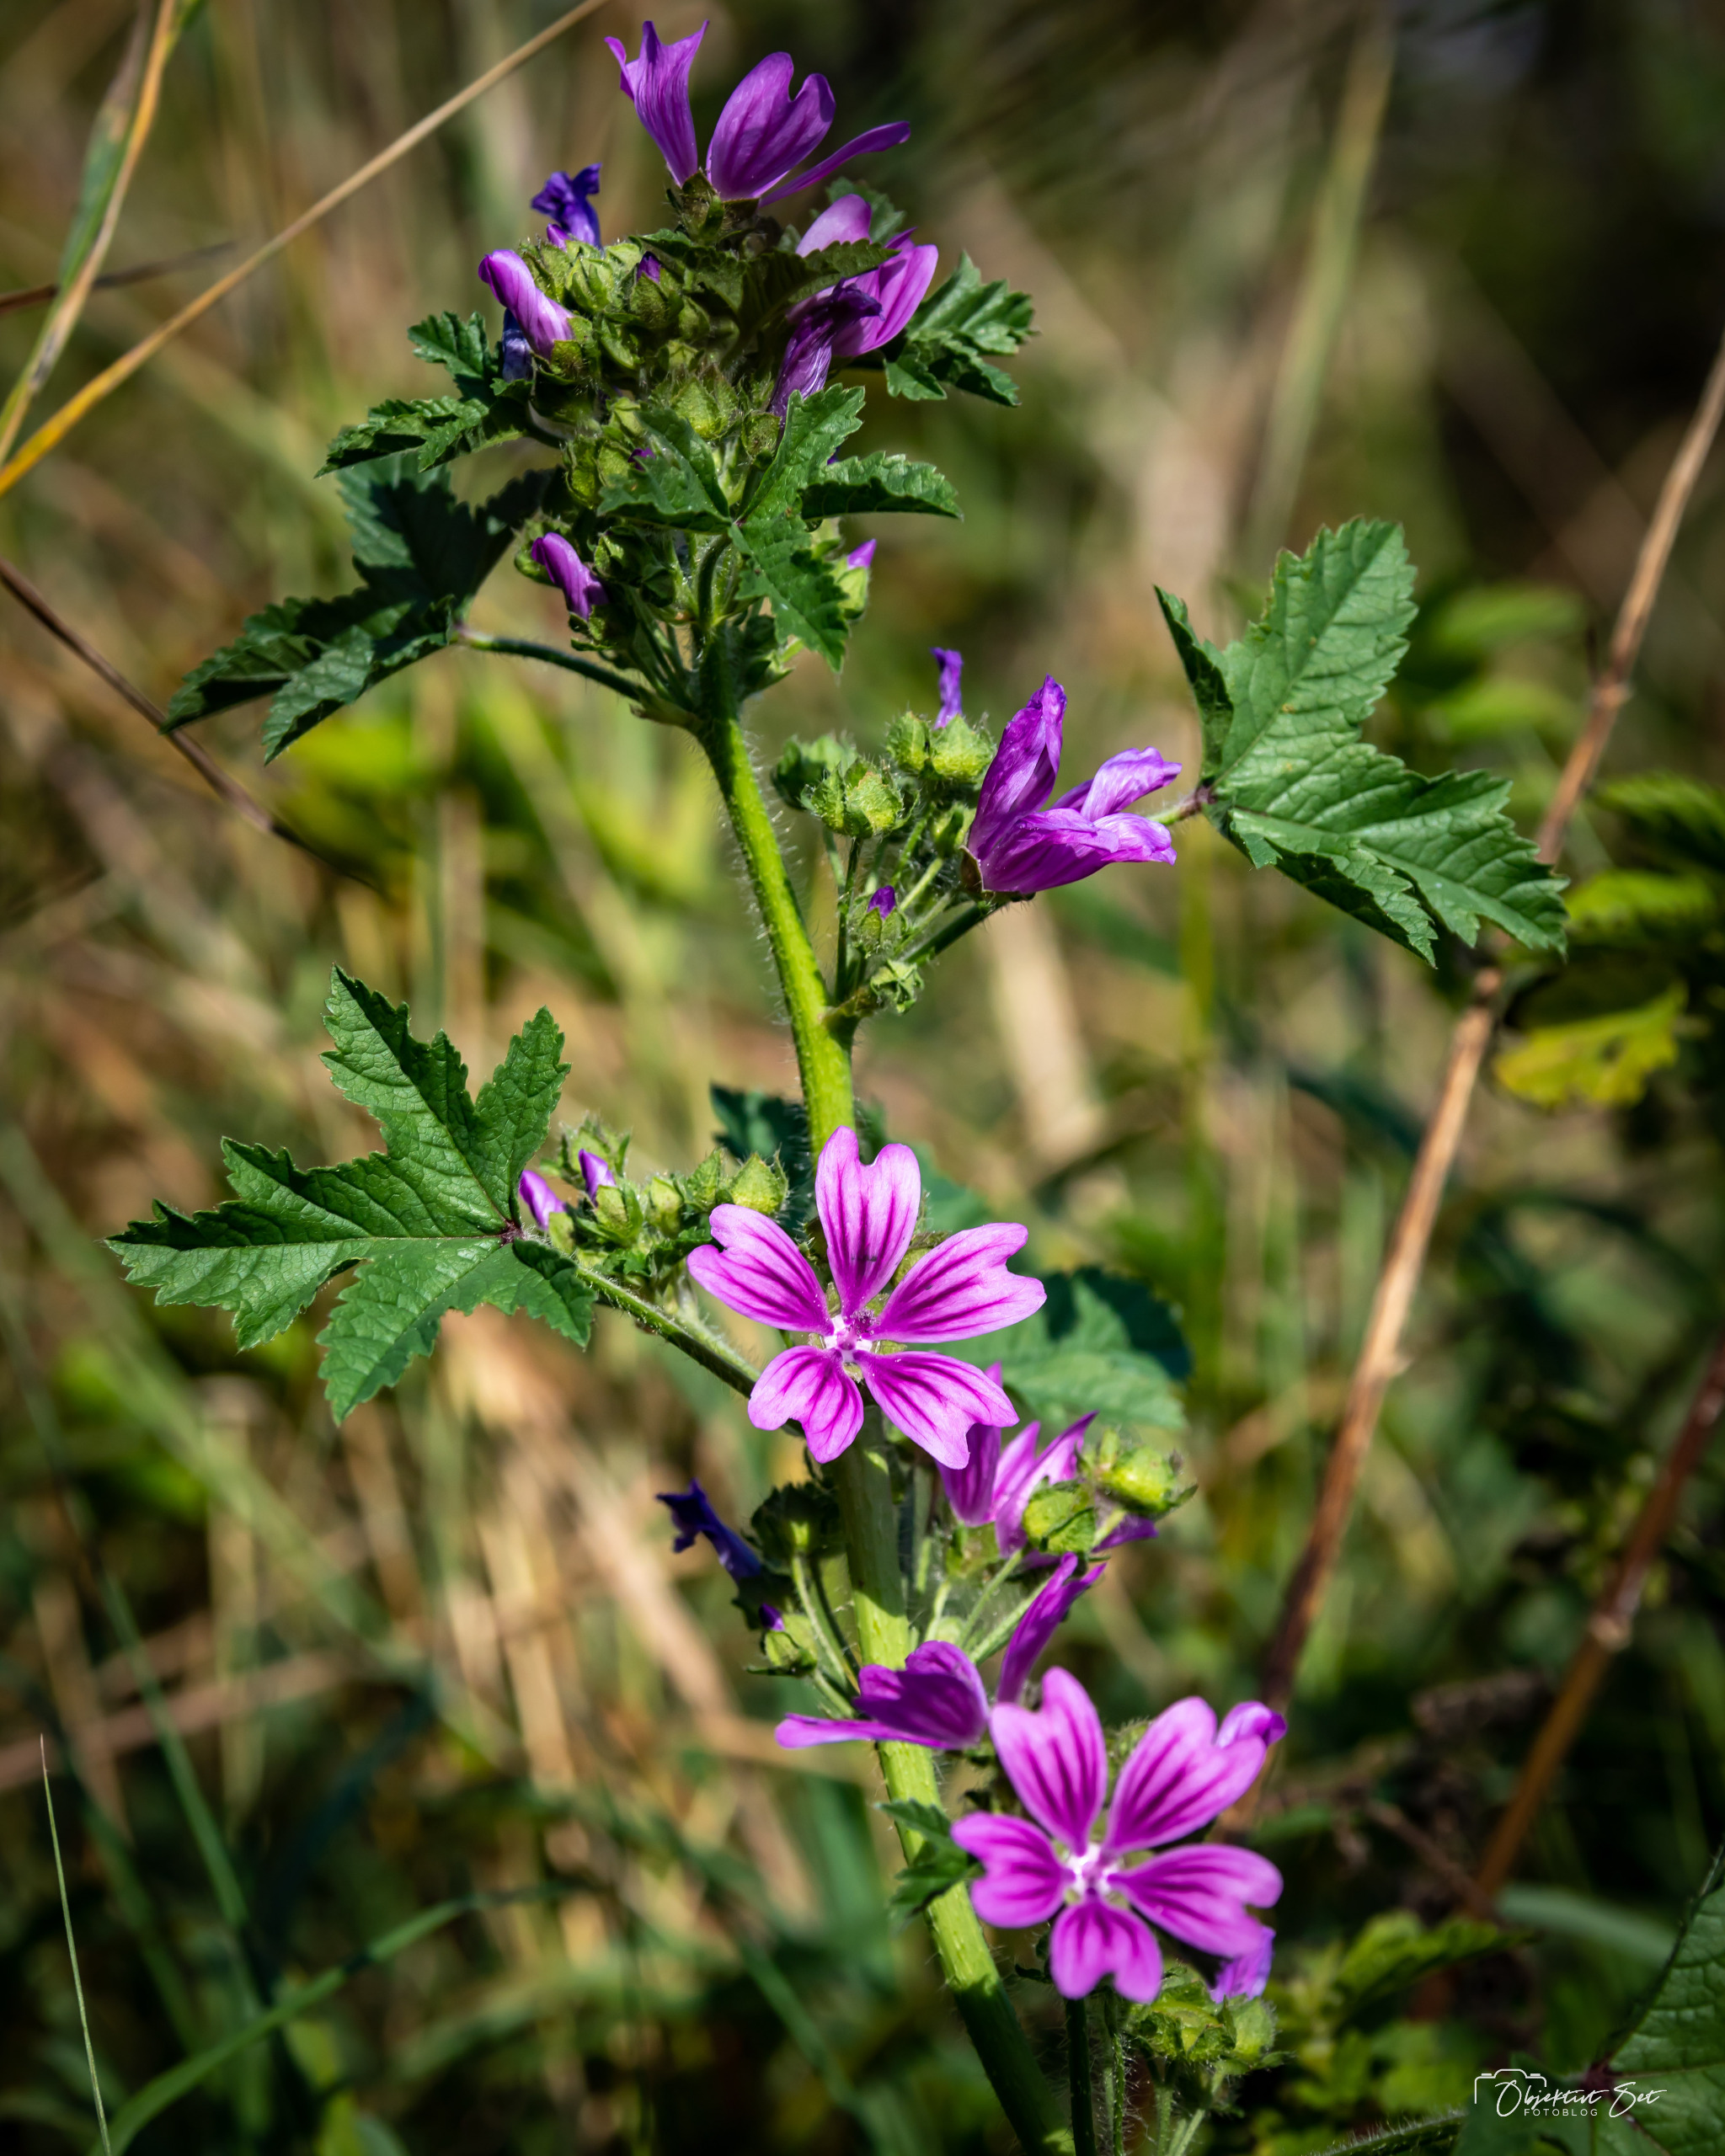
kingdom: Plantae
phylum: Tracheophyta
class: Magnoliopsida
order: Malvales
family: Malvaceae
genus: Malva
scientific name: Malva sylvestris
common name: Almindelig katost
